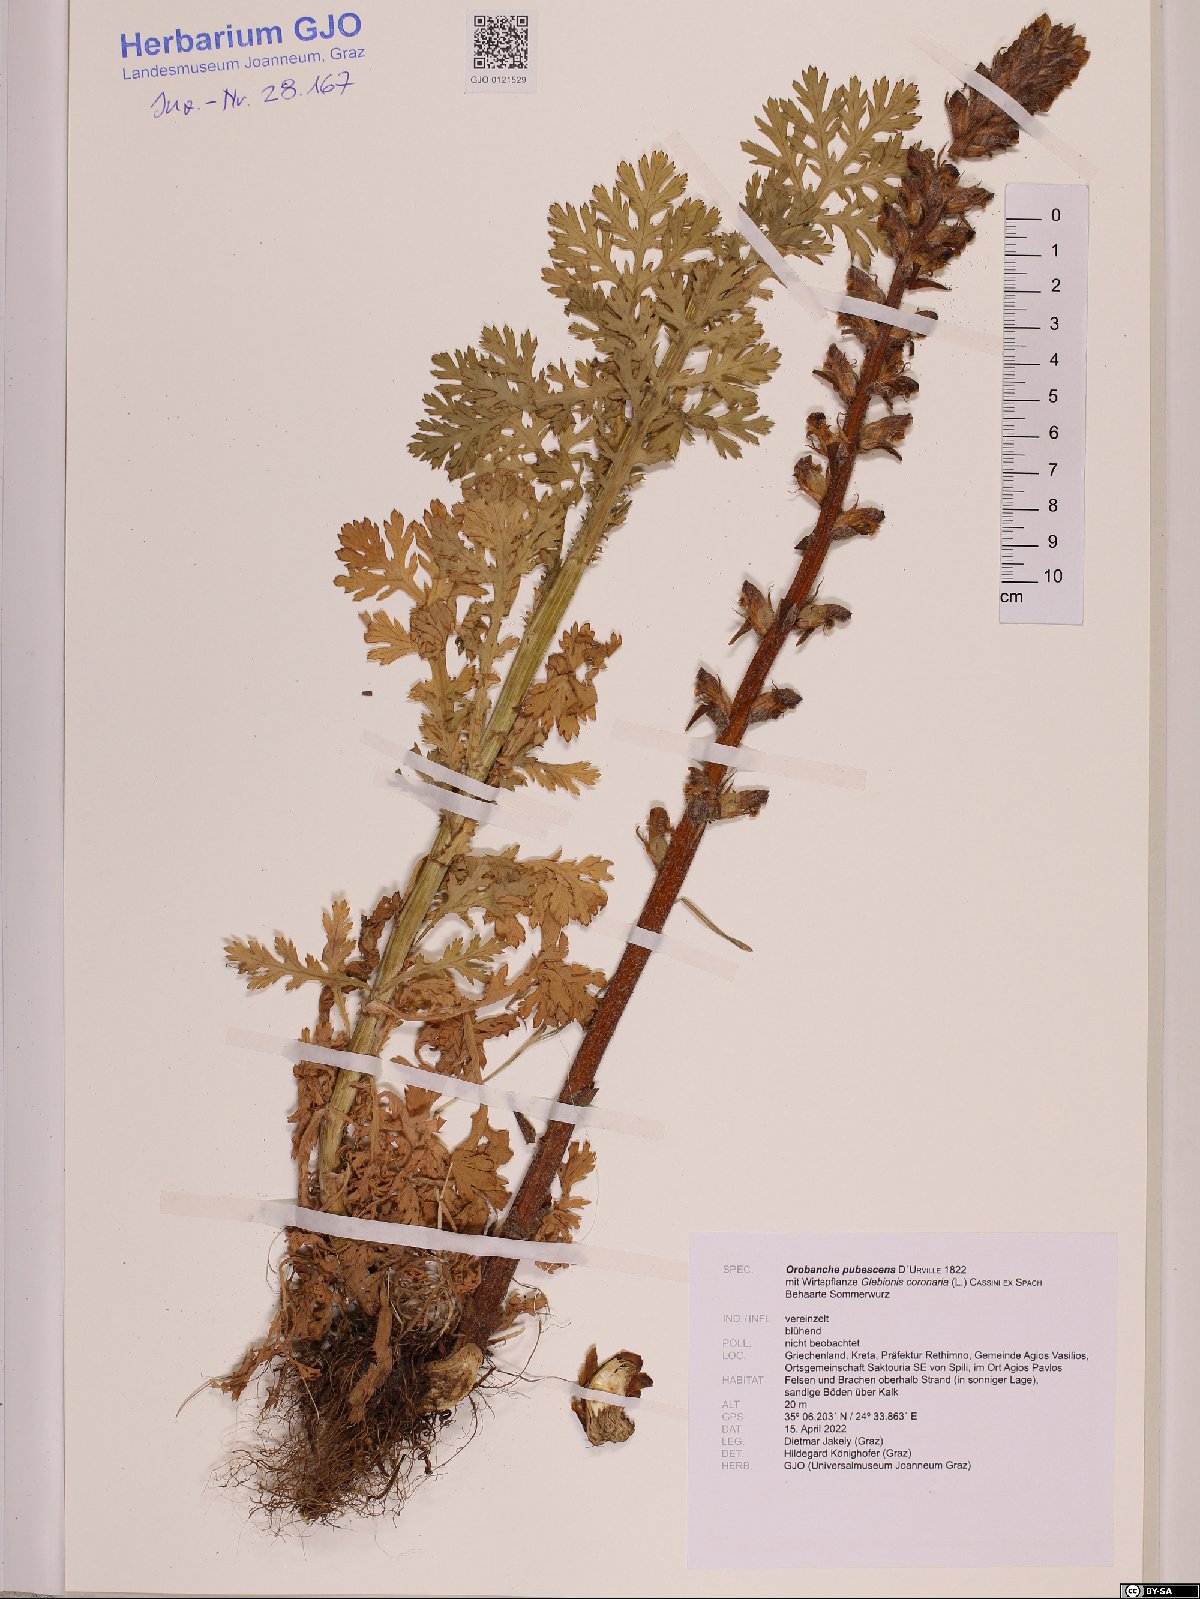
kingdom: Plantae
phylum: Tracheophyta
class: Magnoliopsida
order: Lamiales
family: Orobanchaceae
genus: Orobanche
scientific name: Orobanche pubescens
